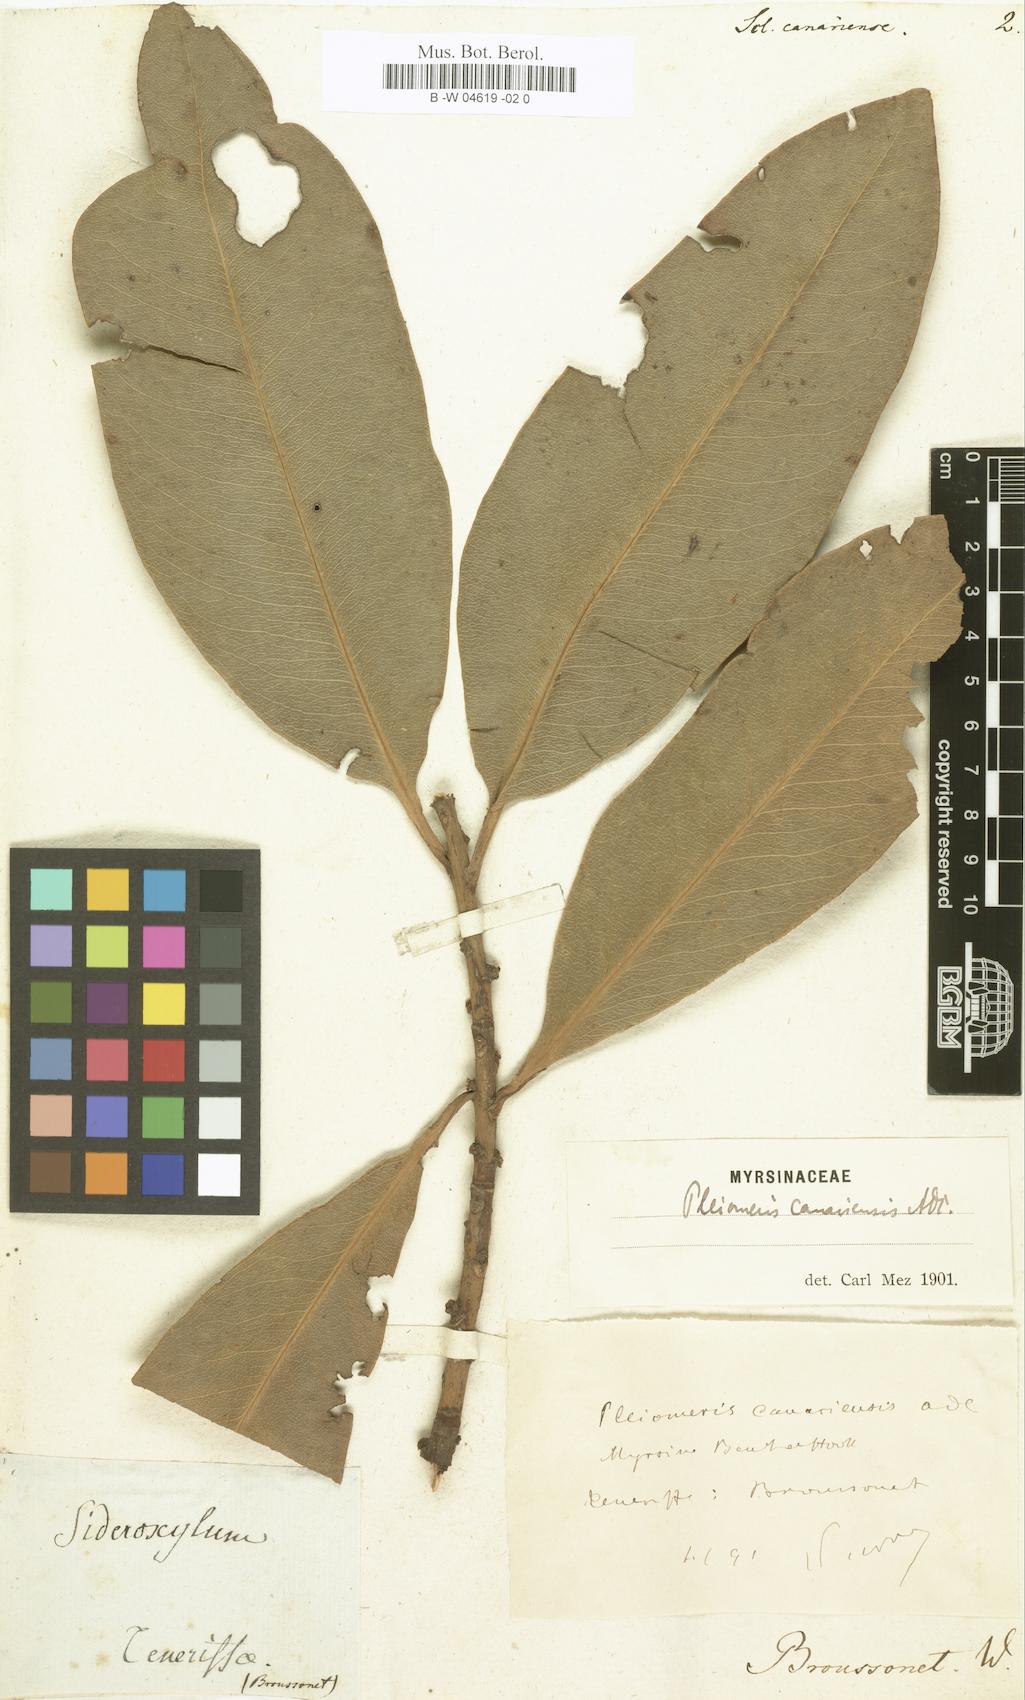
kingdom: Plantae
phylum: Tracheophyta
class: Magnoliopsida
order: Ericales
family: Primulaceae
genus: Pleiomeris
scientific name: Pleiomeris canariensis
